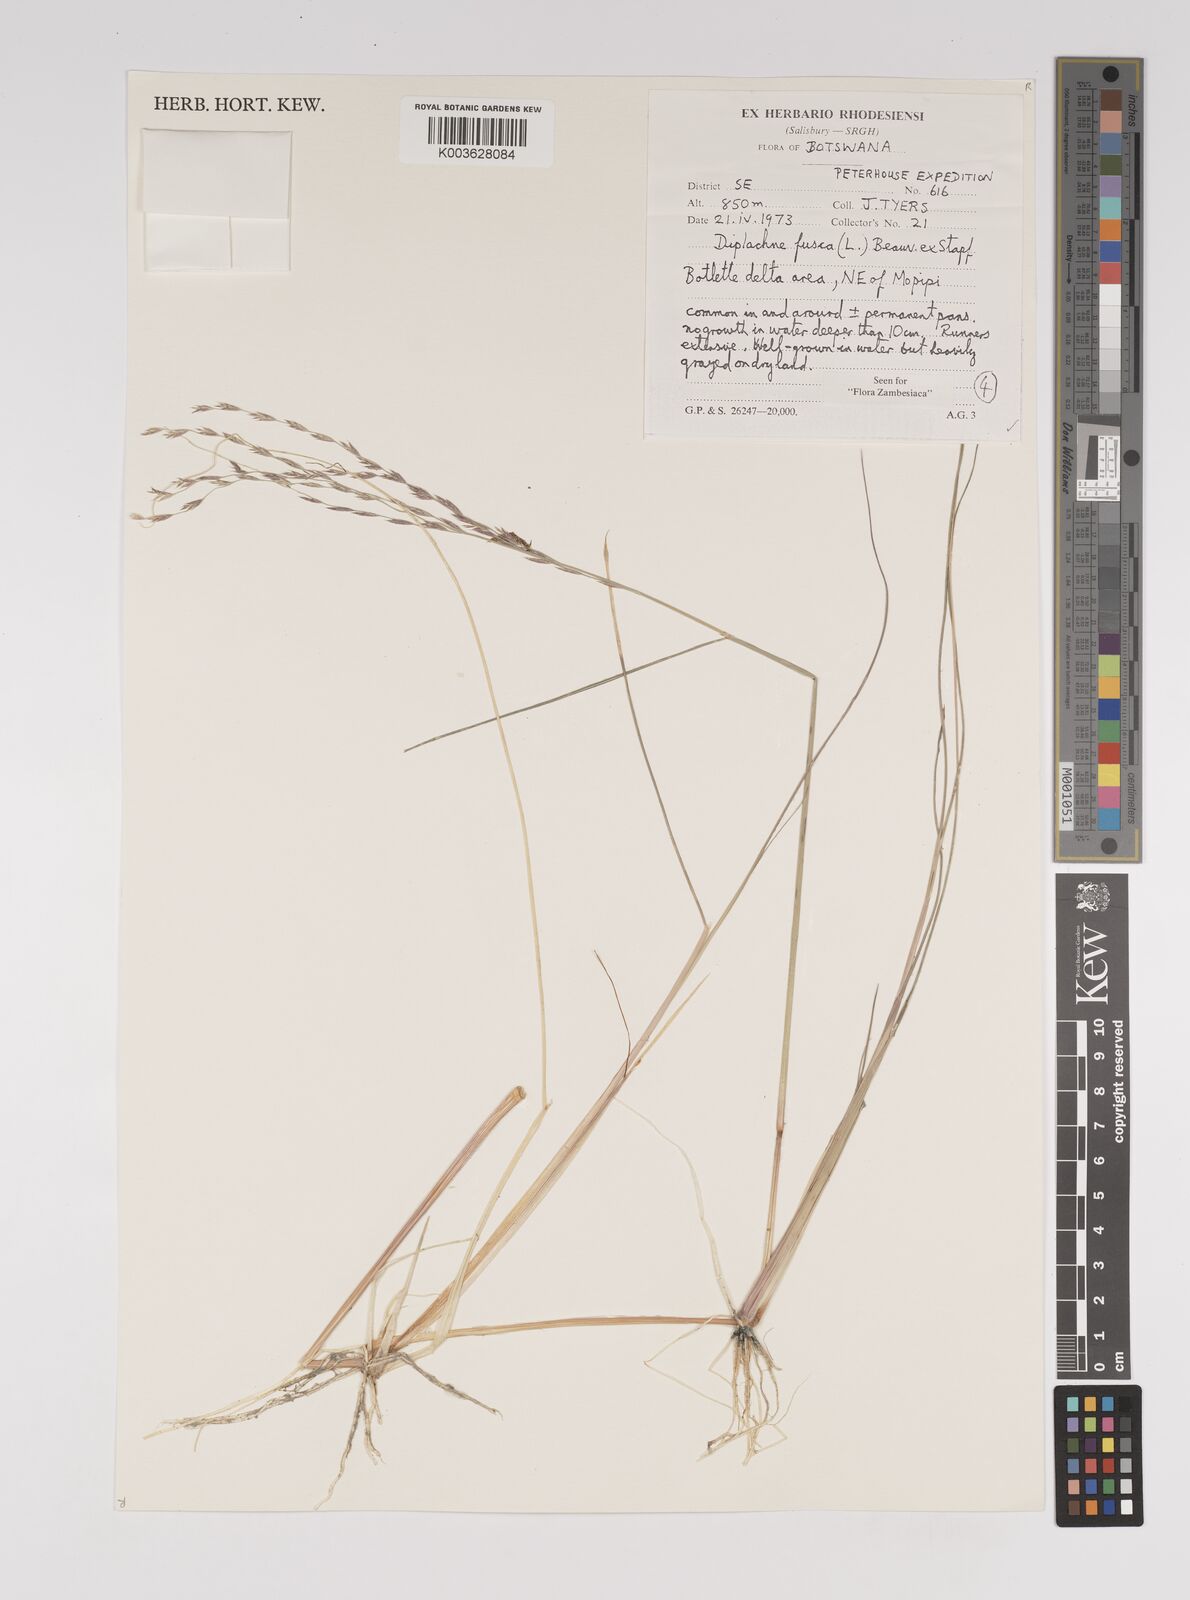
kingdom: Plantae
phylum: Tracheophyta
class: Liliopsida
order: Poales
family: Poaceae
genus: Diplachne
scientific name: Diplachne fusca
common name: Brown beetle grass
